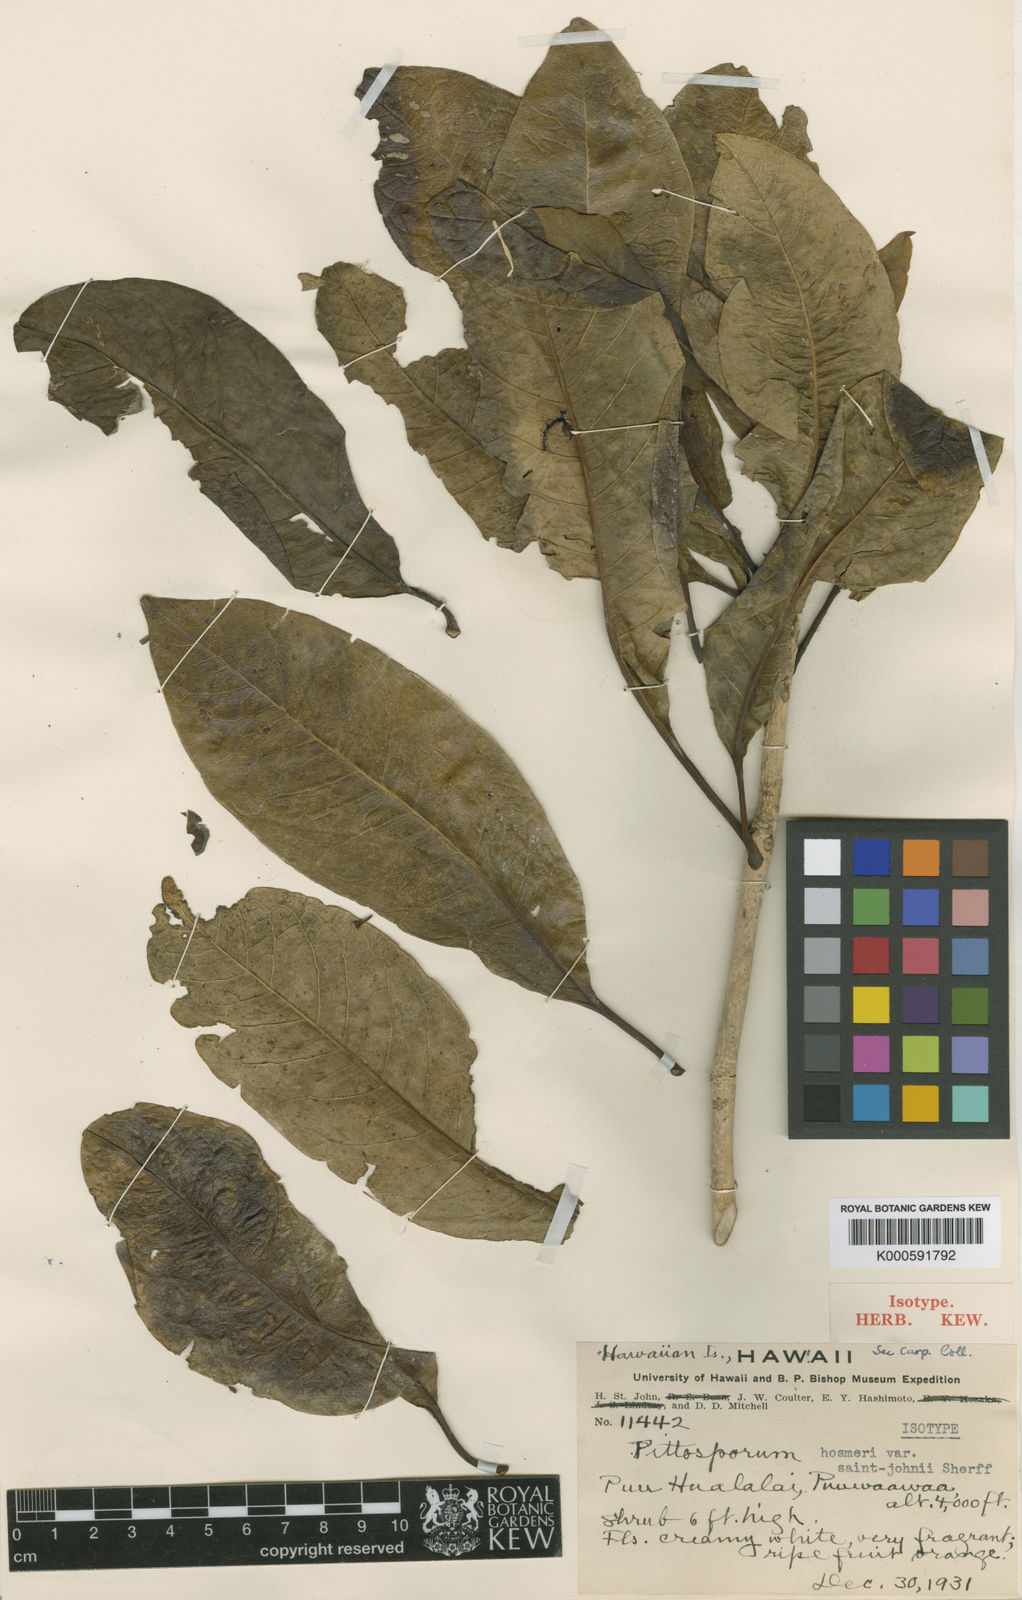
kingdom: Plantae
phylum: Tracheophyta
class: Magnoliopsida
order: Apiales
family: Pittosporaceae
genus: Pittosporum
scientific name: Pittosporum hosmeri
